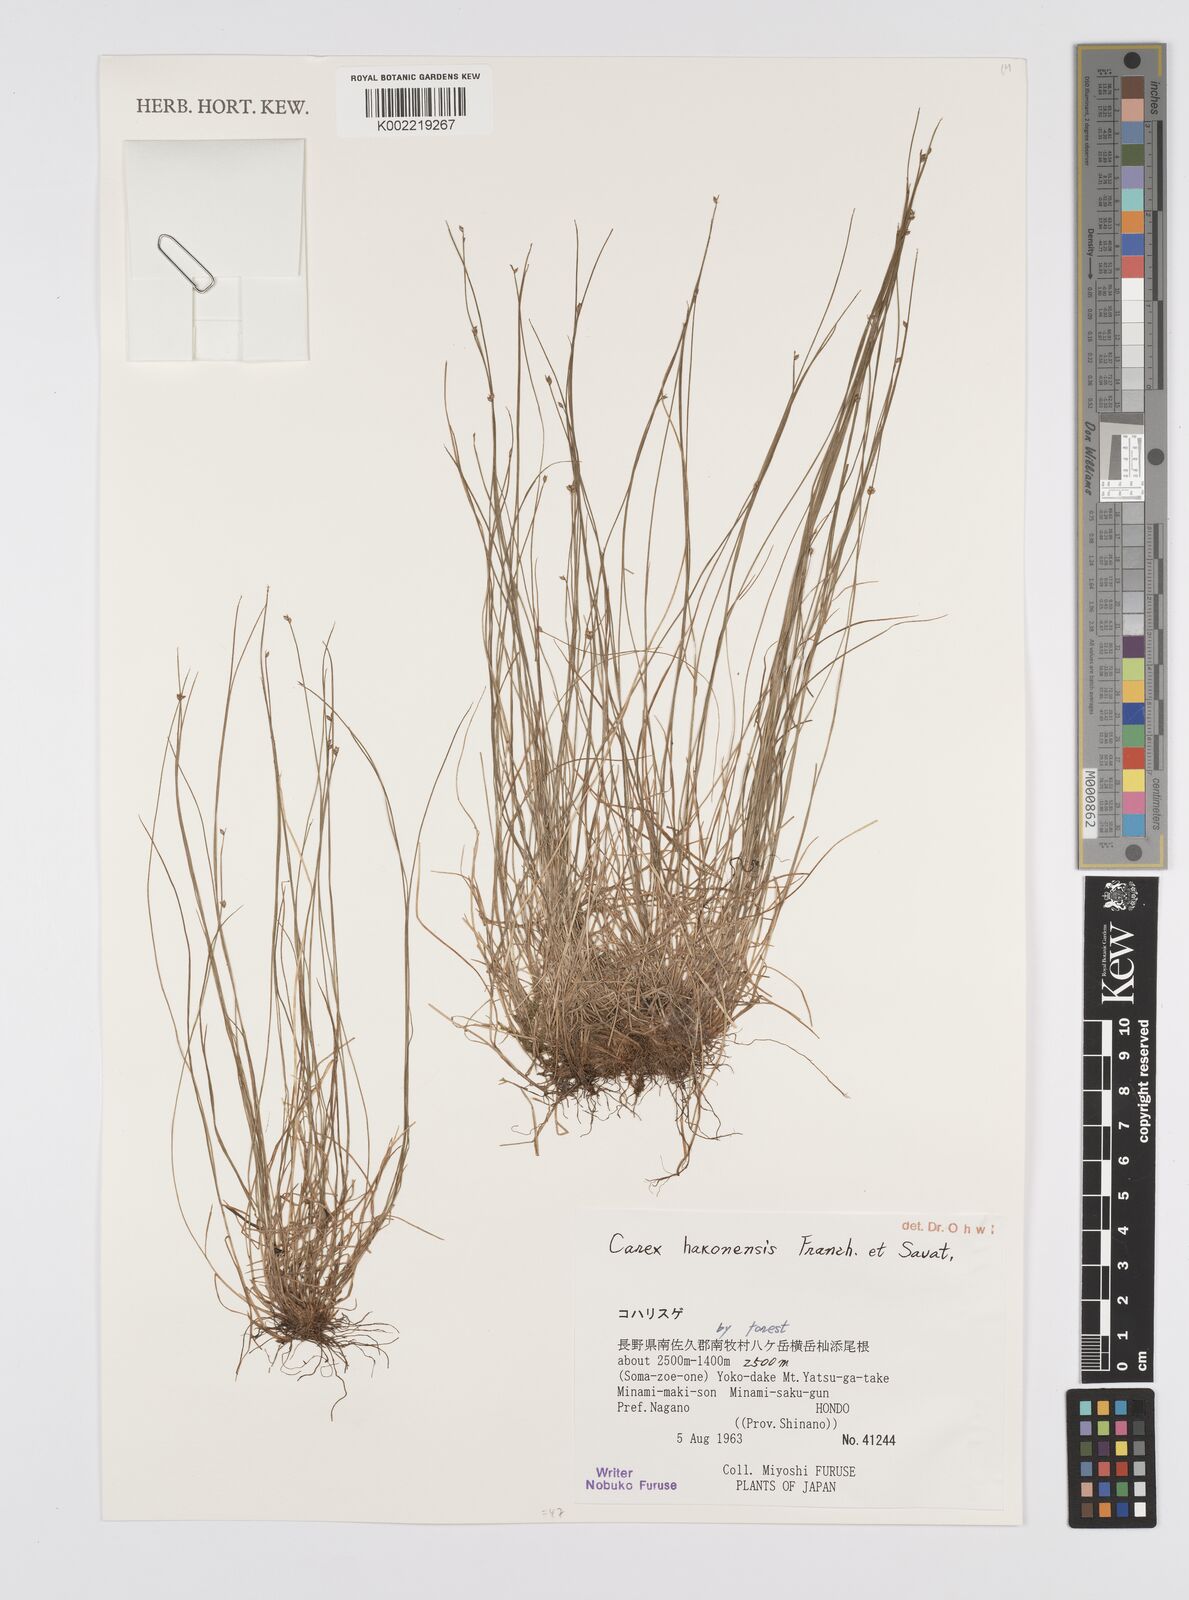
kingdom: Plantae
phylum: Tracheophyta
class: Liliopsida
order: Poales
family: Cyperaceae
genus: Carex
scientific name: Carex onoei
